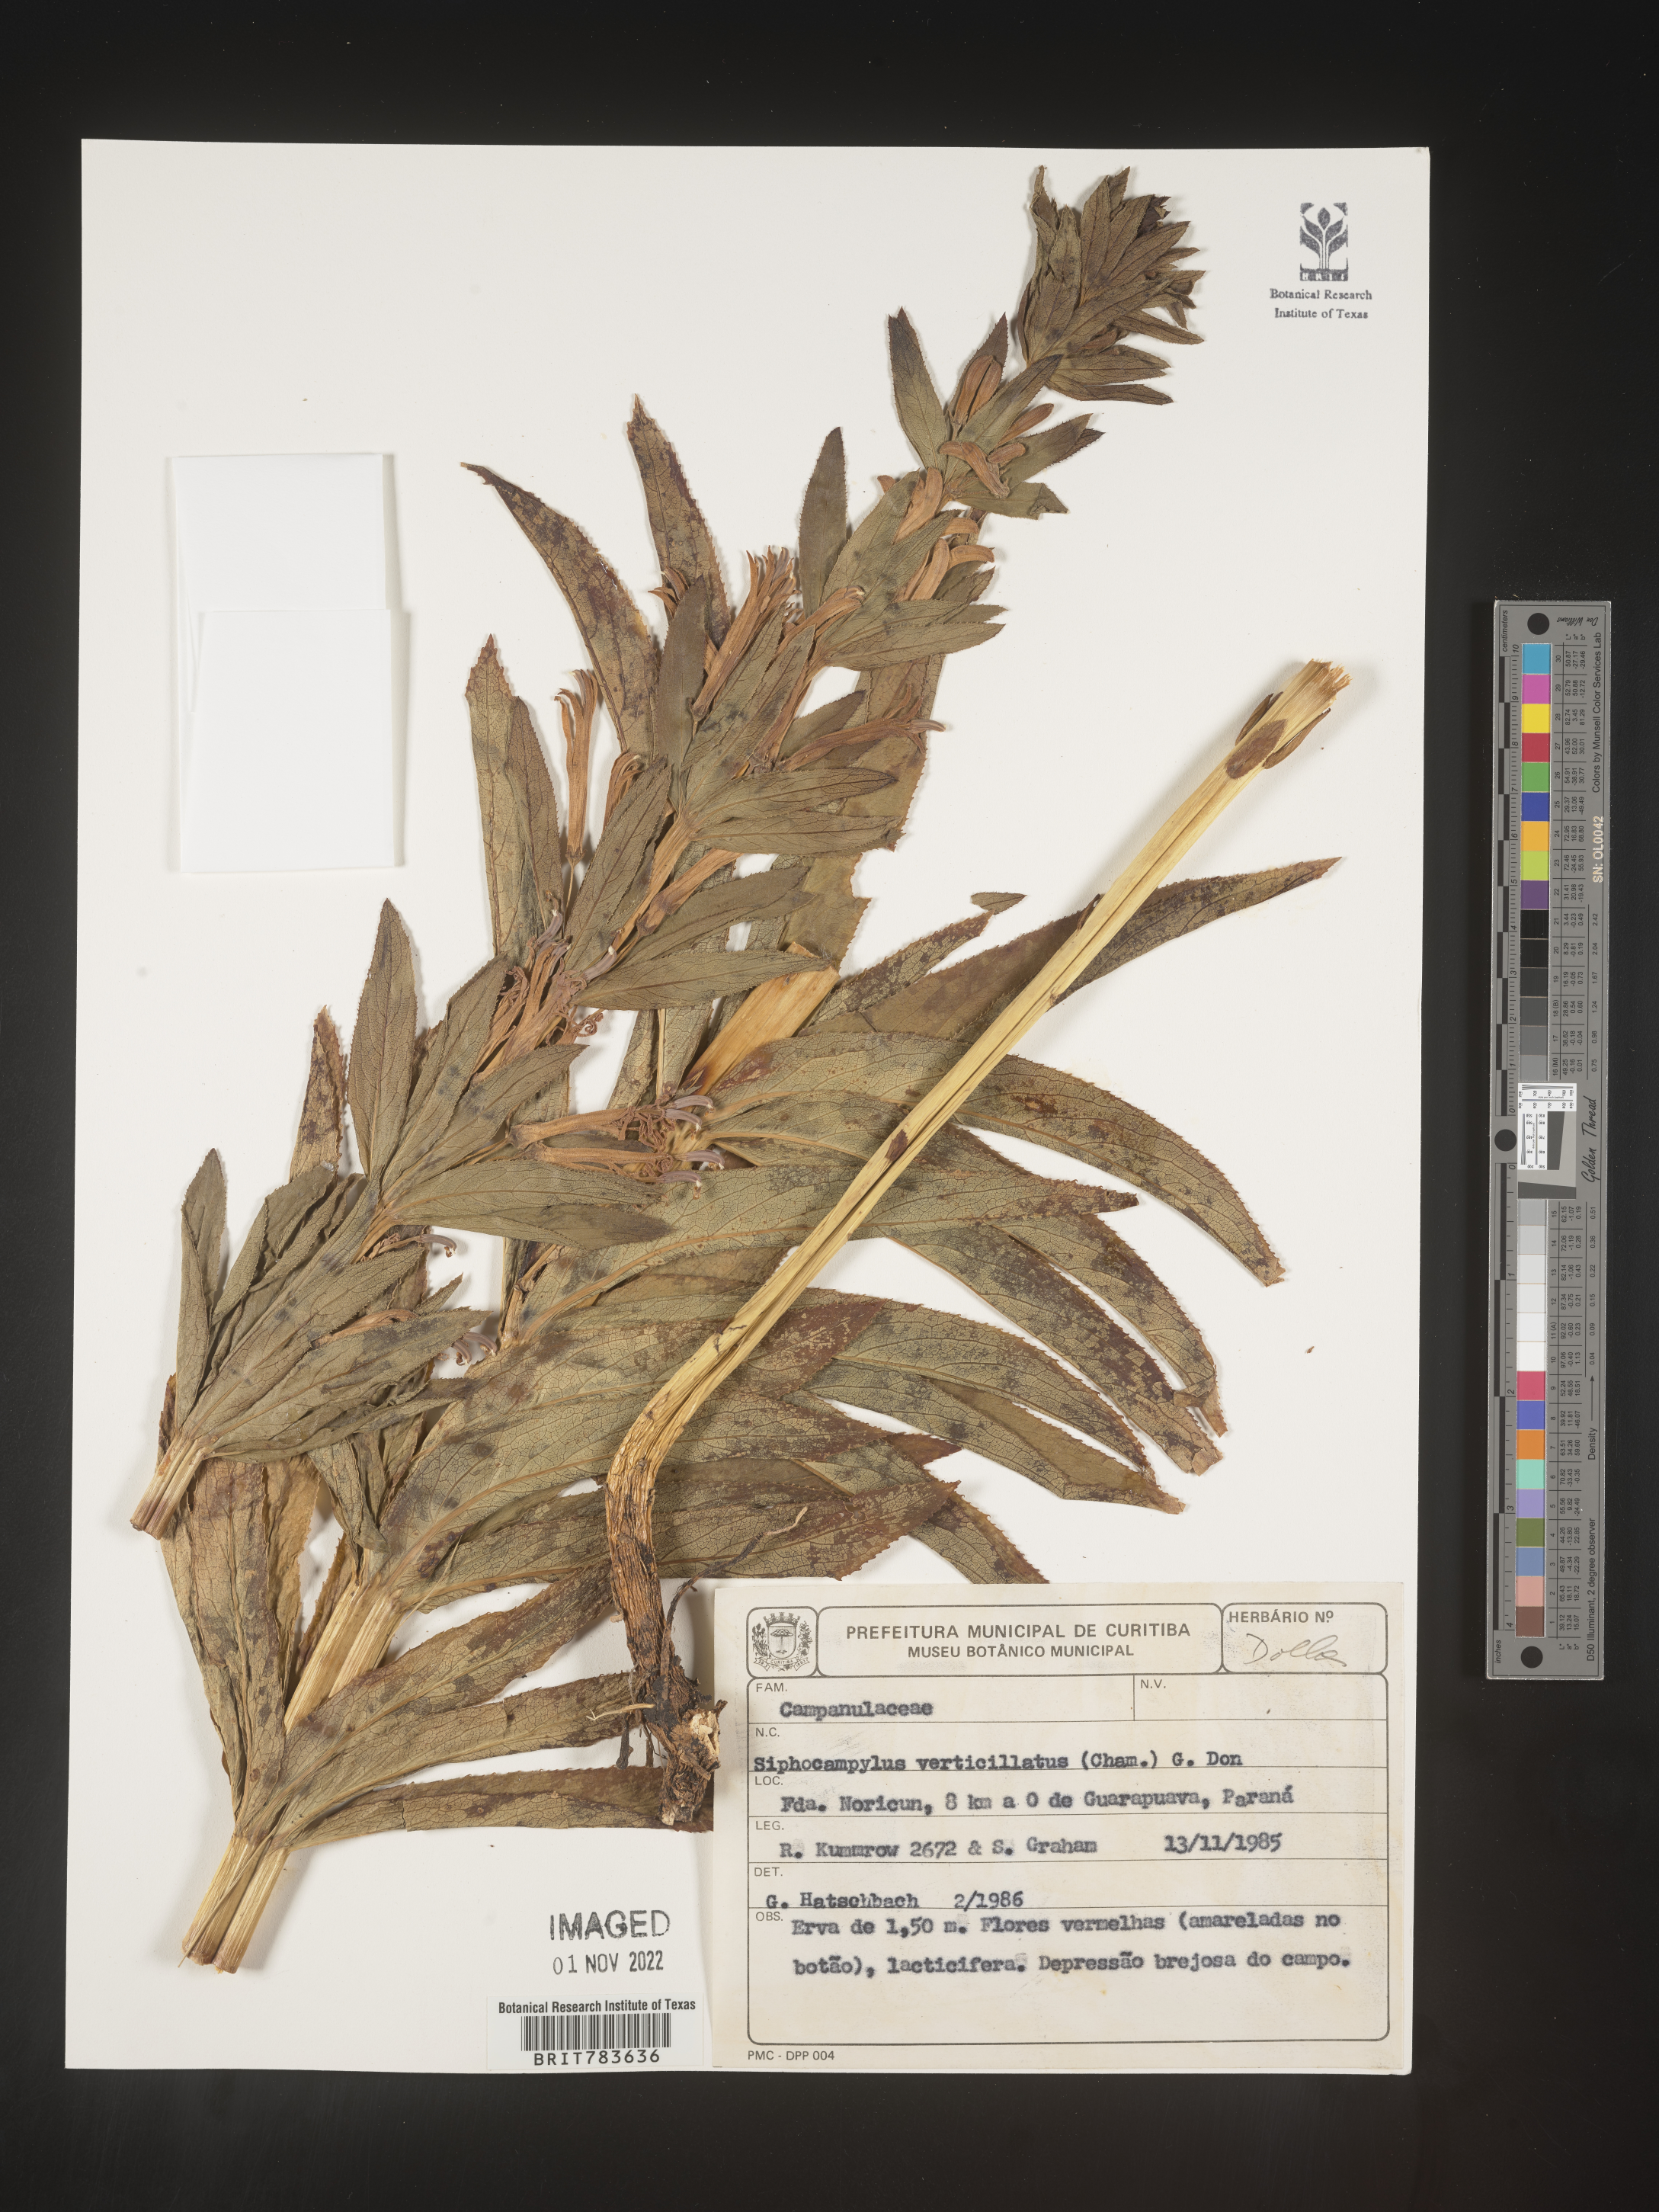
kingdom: Plantae
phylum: Tracheophyta
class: Magnoliopsida
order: Asterales
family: Campanulaceae
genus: Siphocampylus
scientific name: Siphocampylus
